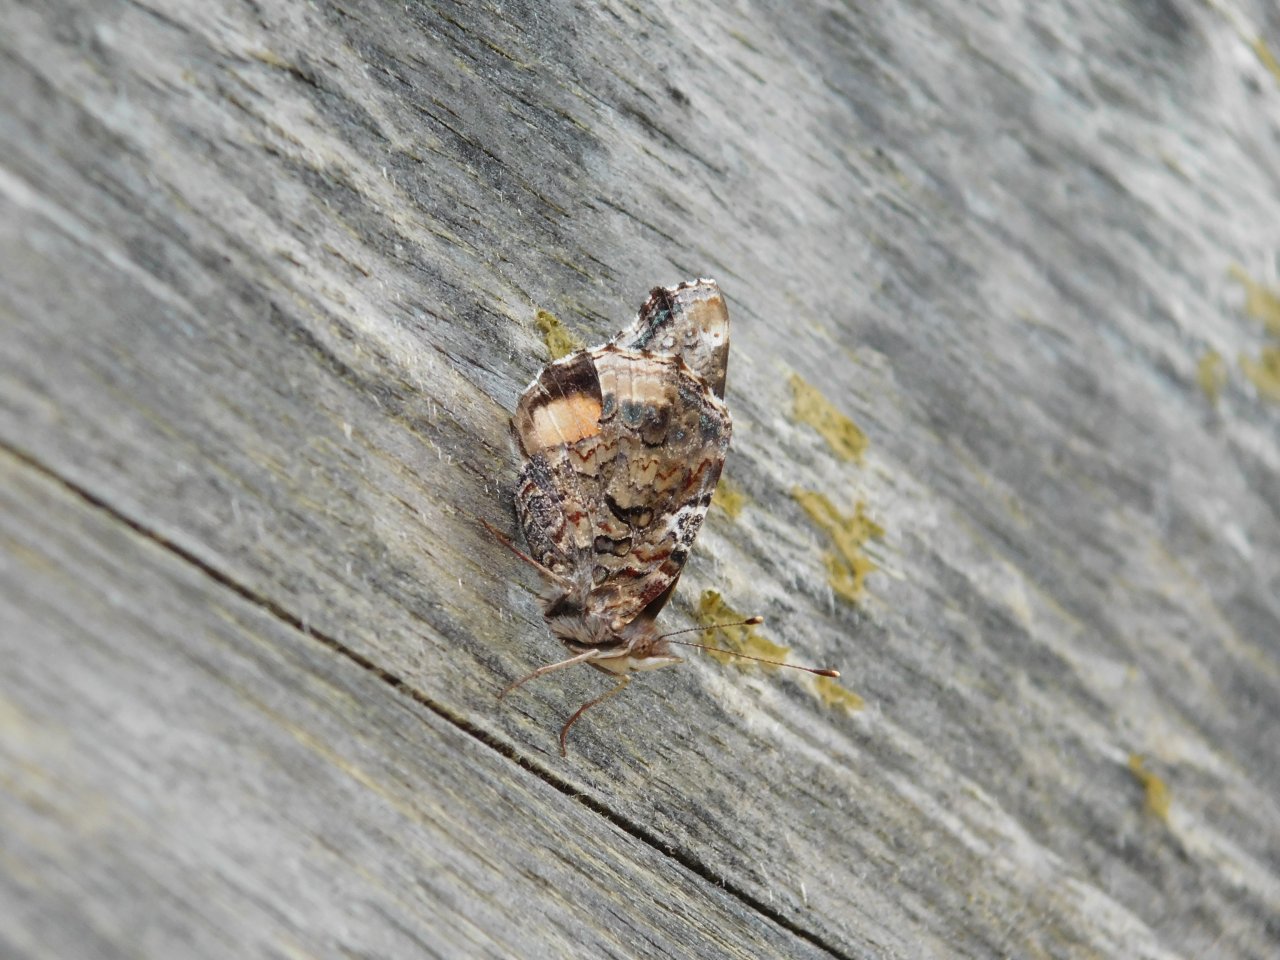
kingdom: Animalia
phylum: Arthropoda
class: Insecta
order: Lepidoptera
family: Nymphalidae
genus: Vanessa
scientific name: Vanessa atalanta
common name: Red Admiral
